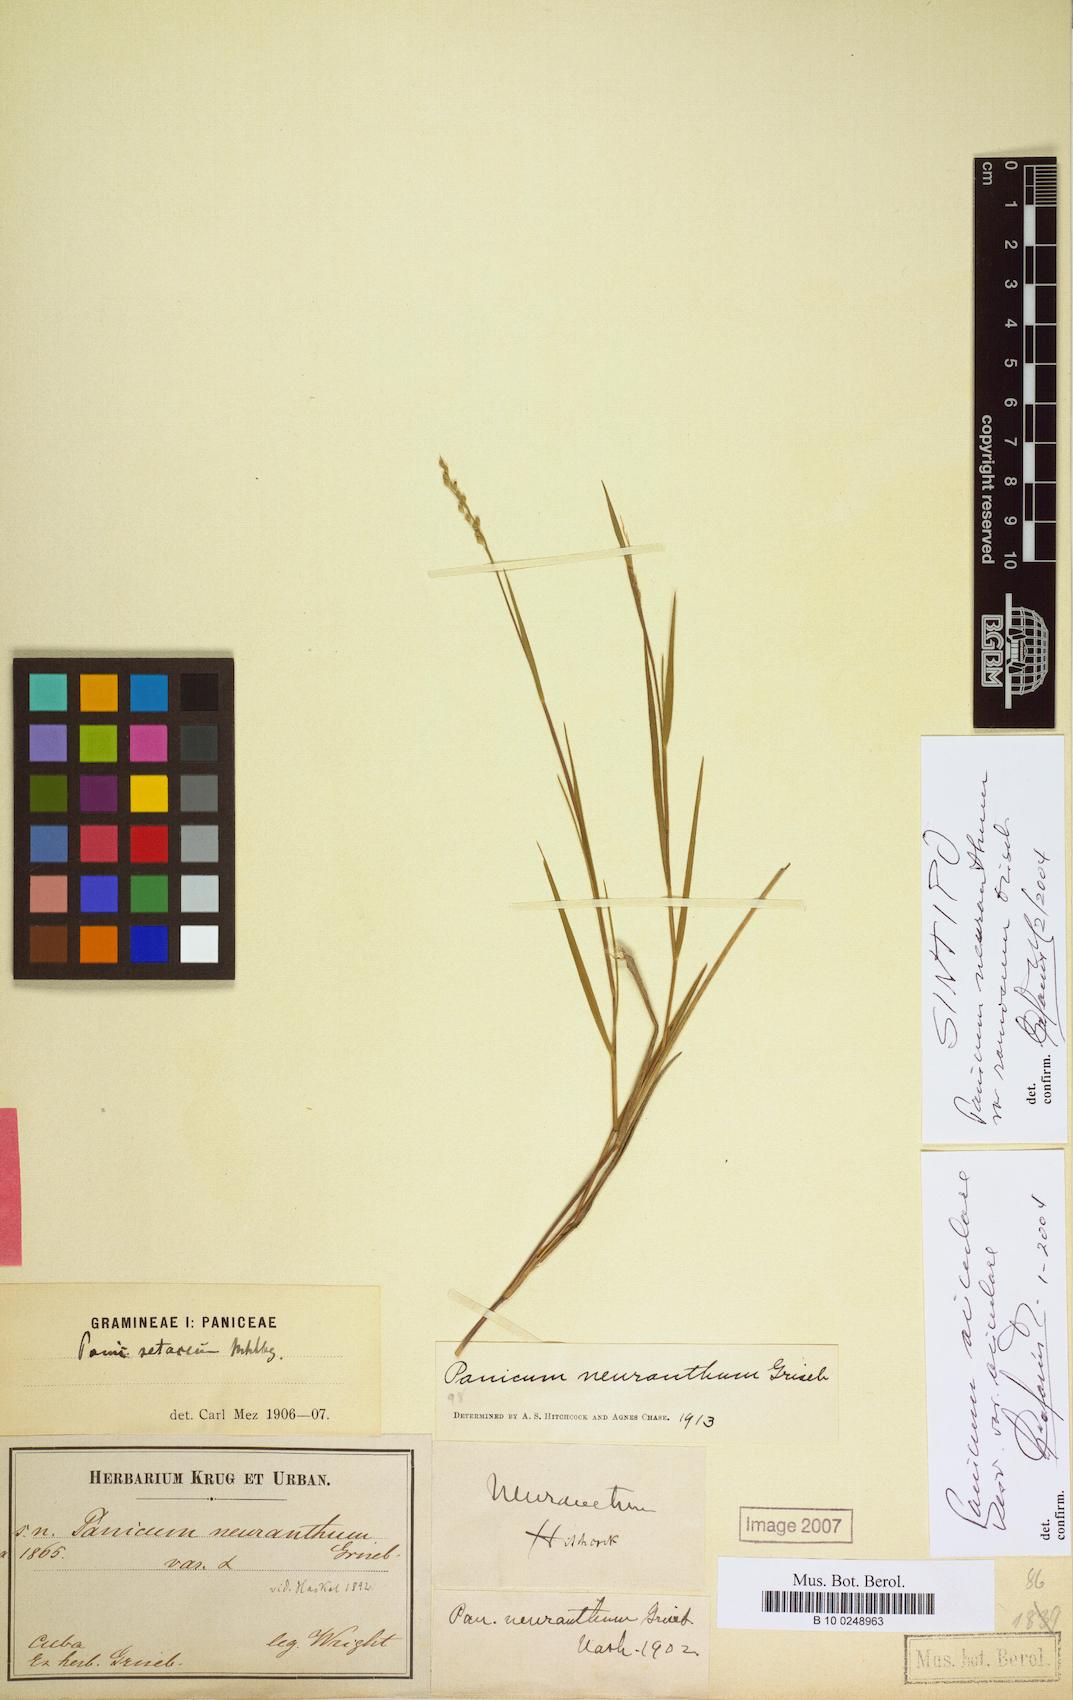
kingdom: Plantae
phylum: Tracheophyta
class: Liliopsida
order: Poales
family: Poaceae
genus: Dichanthelium
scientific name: Dichanthelium neuranthum
